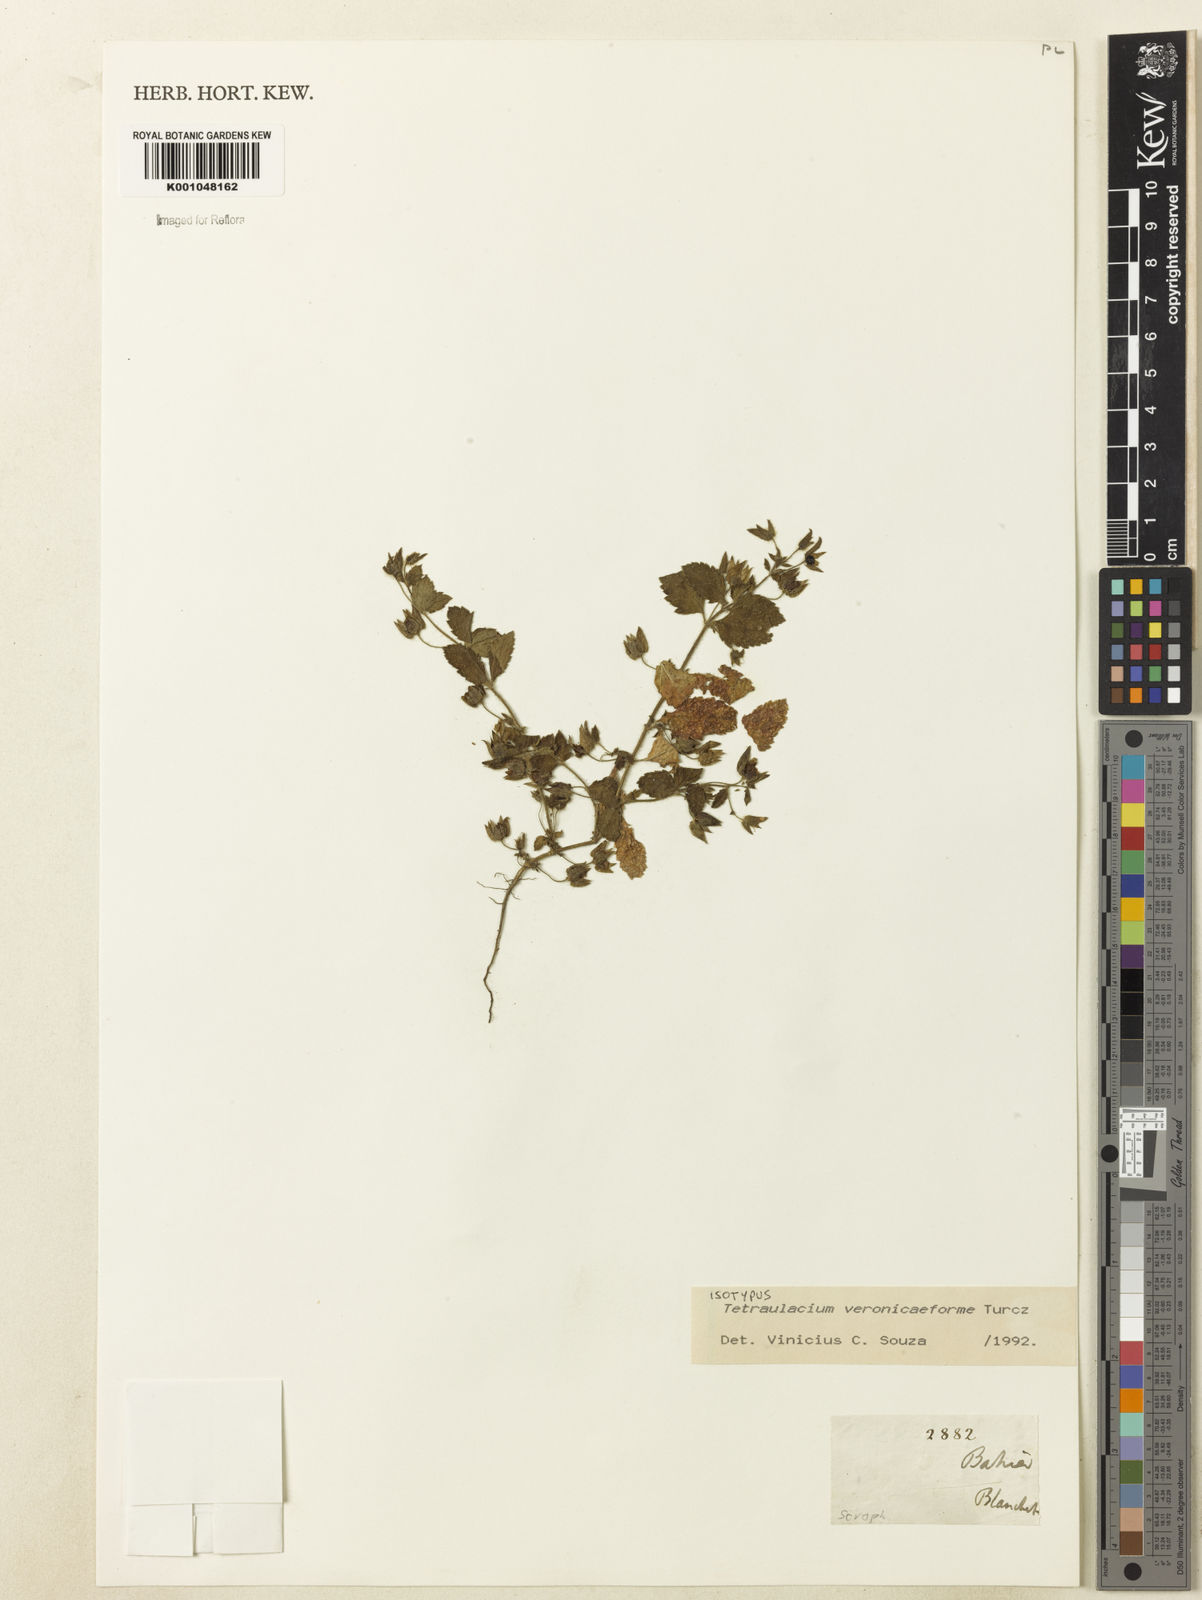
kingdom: Plantae
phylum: Tracheophyta
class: Magnoliopsida
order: Lamiales
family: Plantaginaceae
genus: Tetraulacium
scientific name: Tetraulacium veroniciforme
